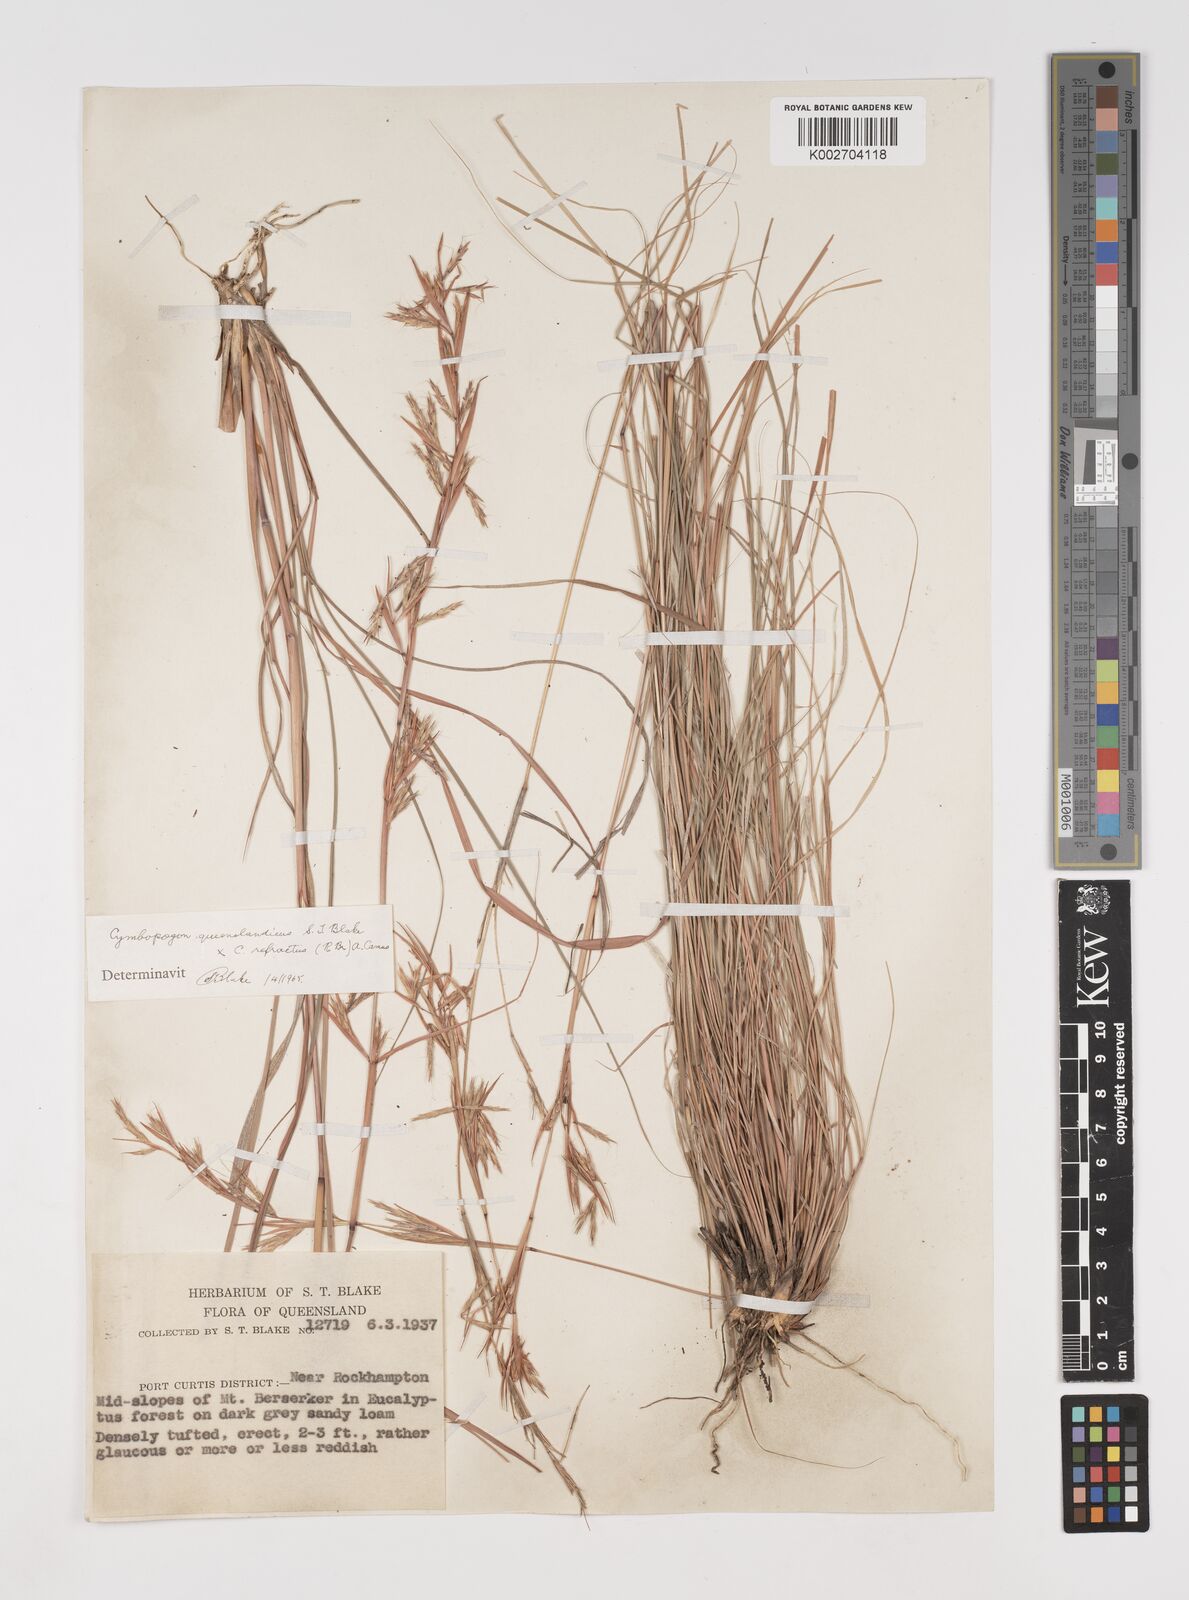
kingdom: Plantae
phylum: Tracheophyta
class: Liliopsida
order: Poales
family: Poaceae
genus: Cymbopogon
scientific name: Cymbopogon
